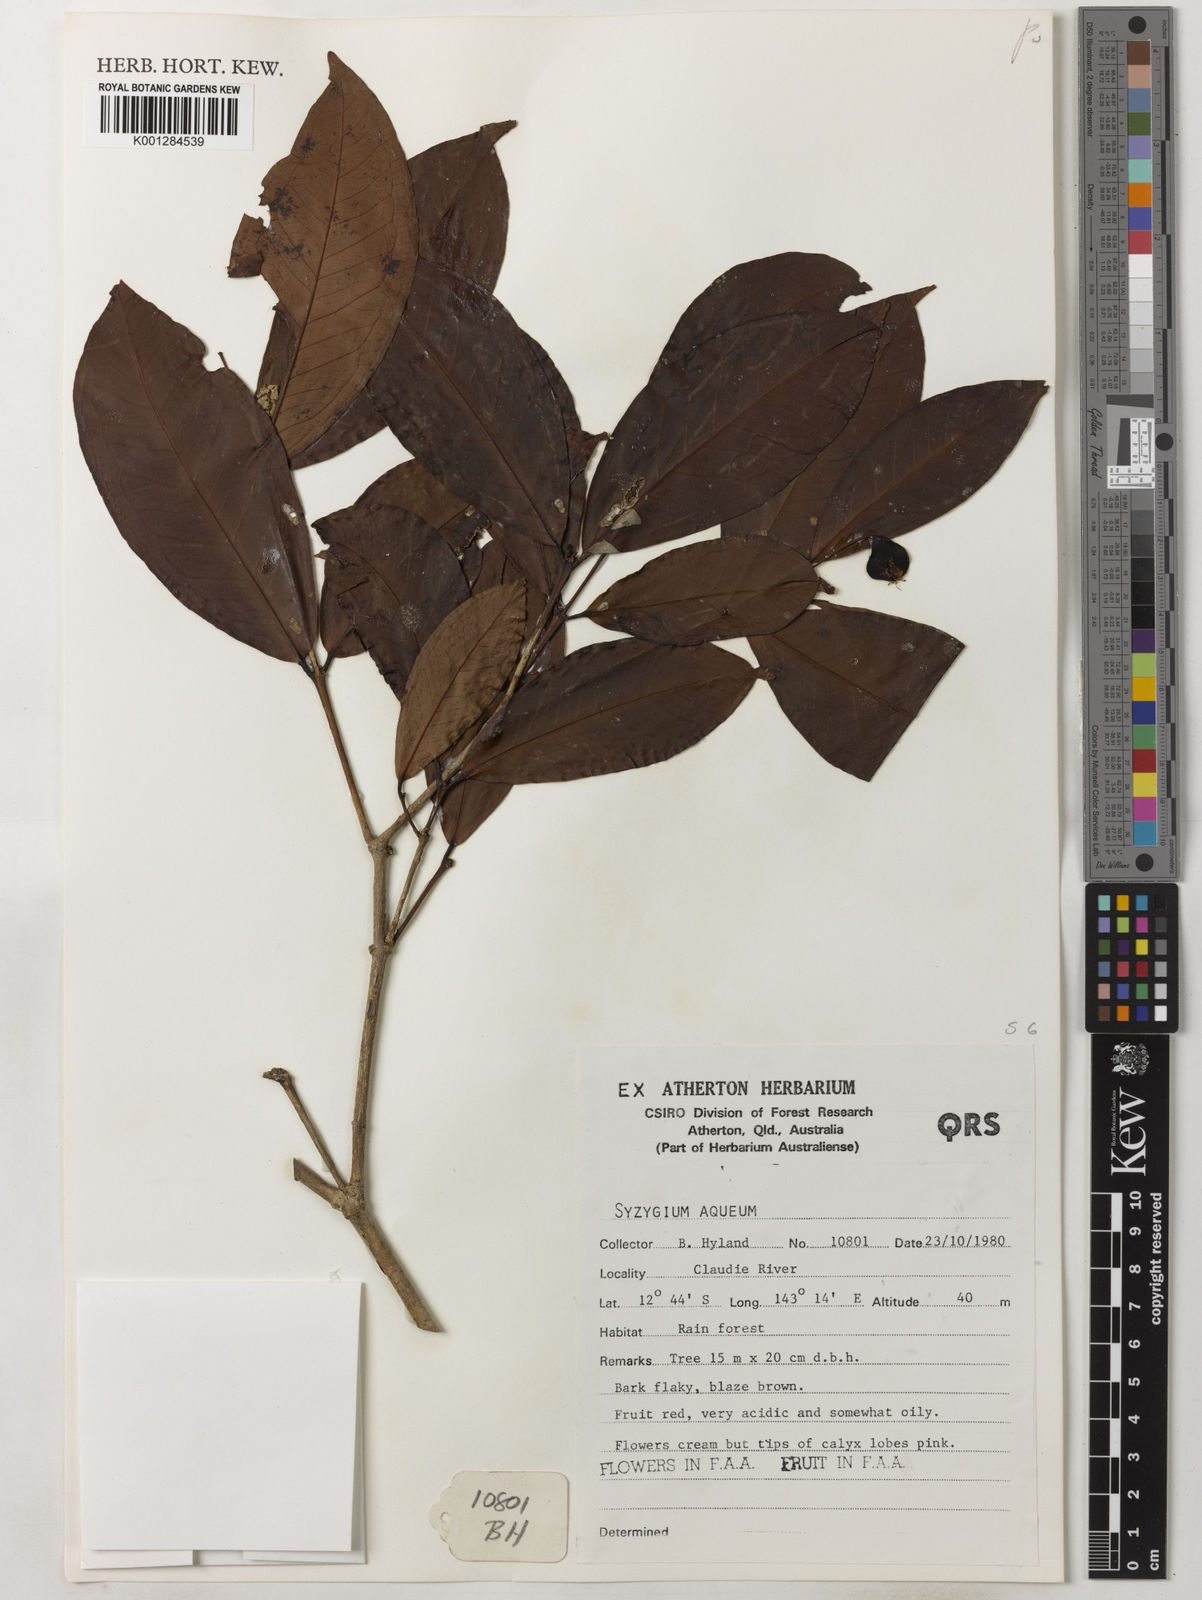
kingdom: Plantae
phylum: Tracheophyta
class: Magnoliopsida
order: Myrtales
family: Myrtaceae
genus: Syzygium
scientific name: Syzygium aqueum
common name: Water-apple
